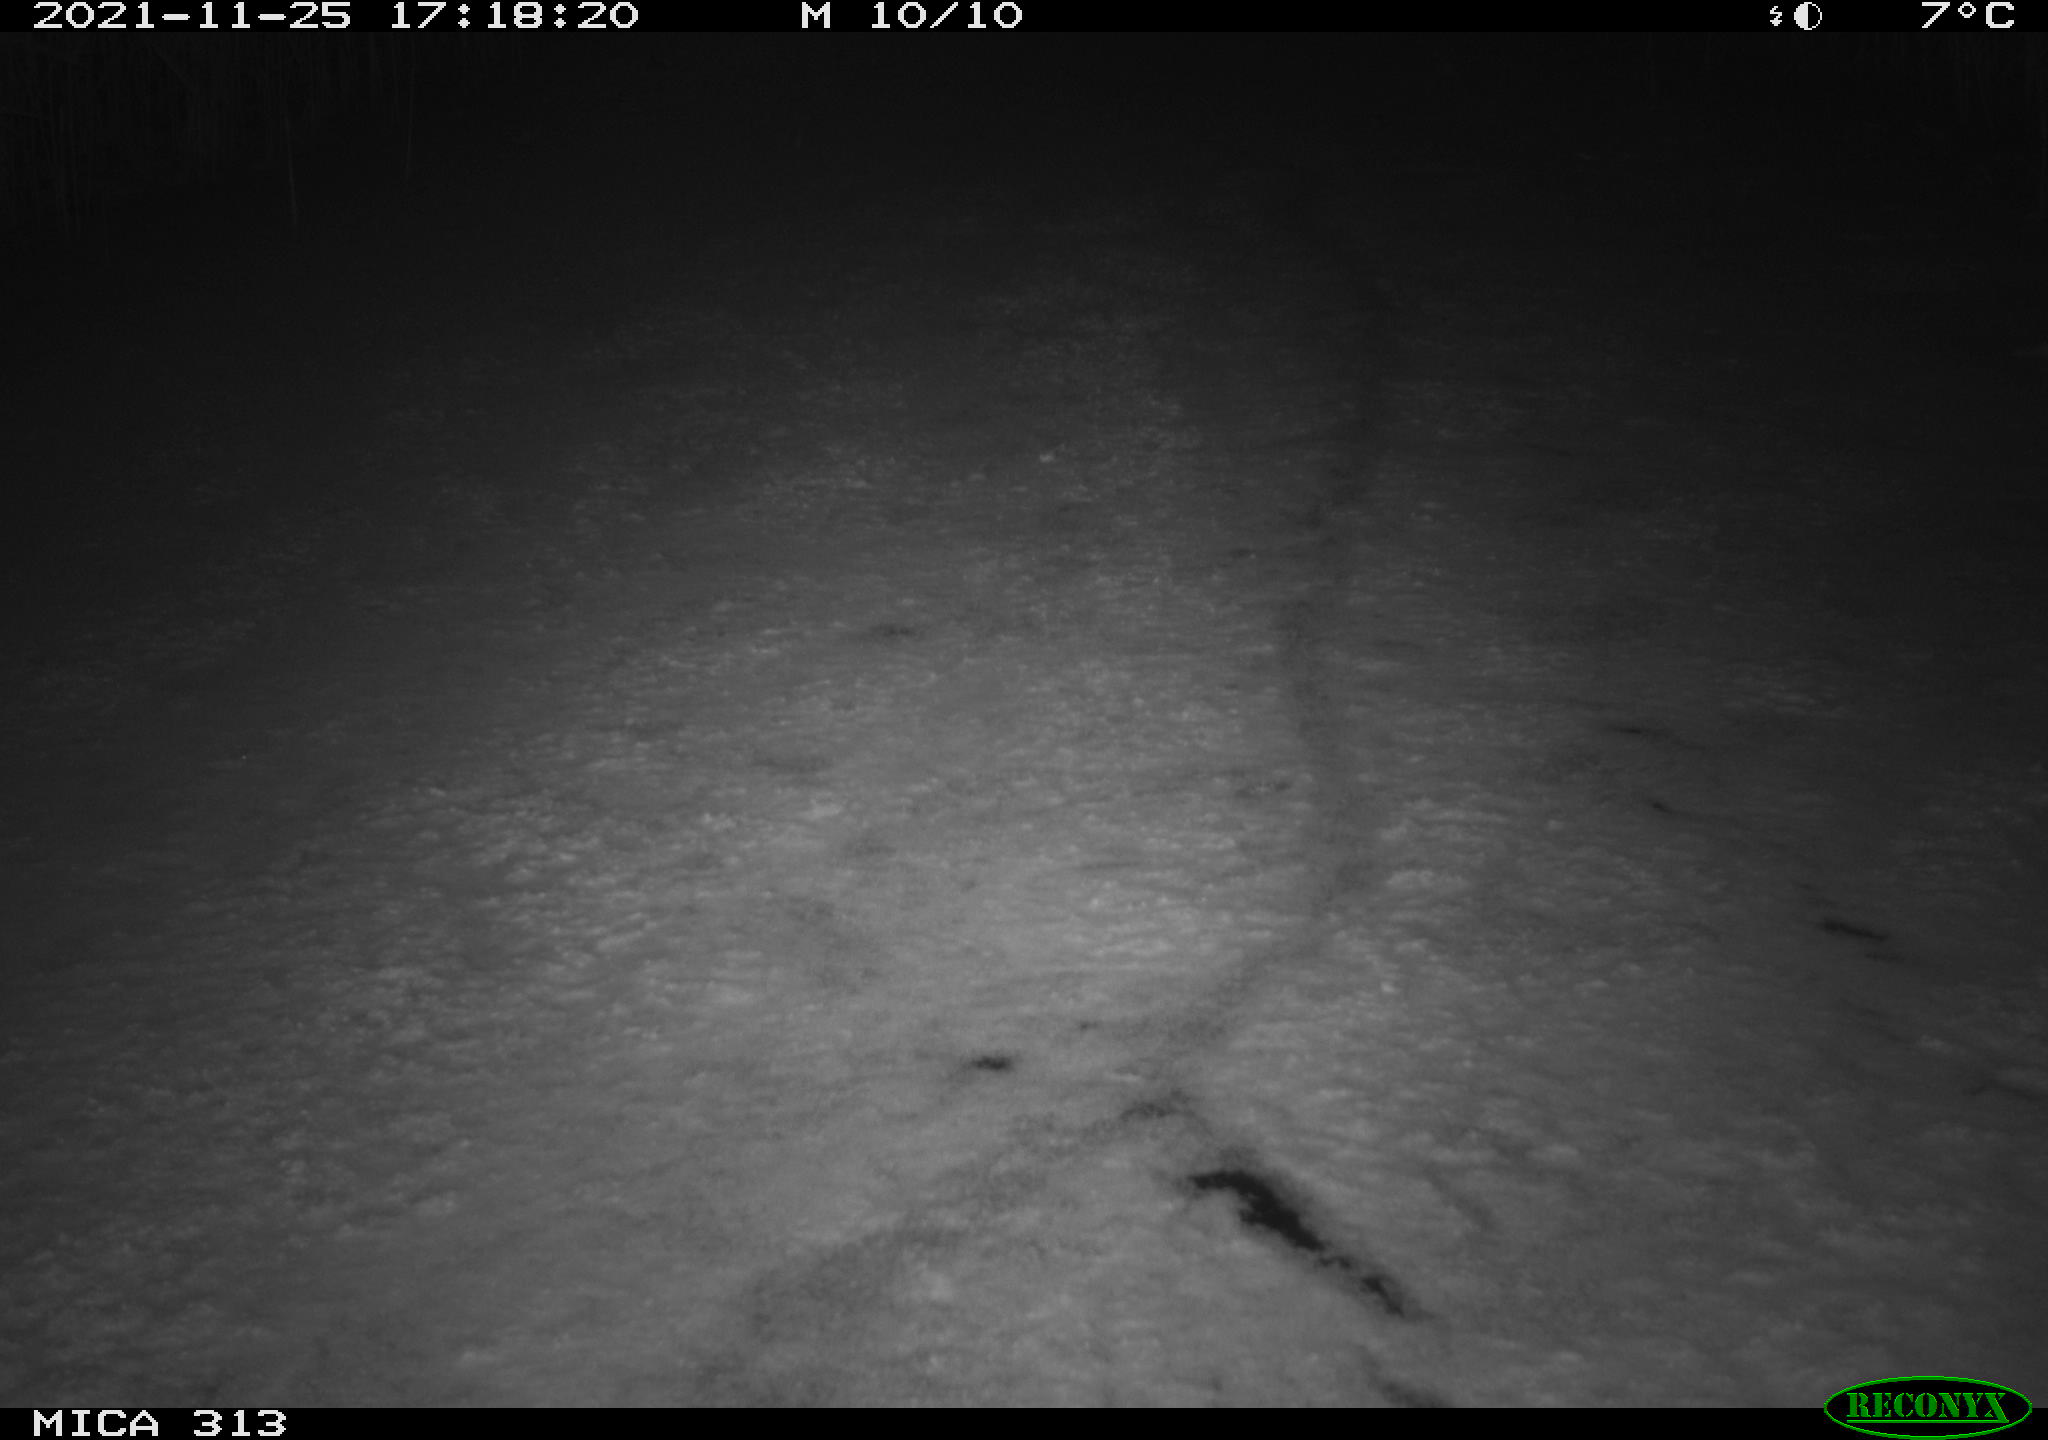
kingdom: Animalia
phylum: Chordata
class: Aves
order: Gruiformes
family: Rallidae
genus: Gallinula
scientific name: Gallinula chloropus
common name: Common moorhen
